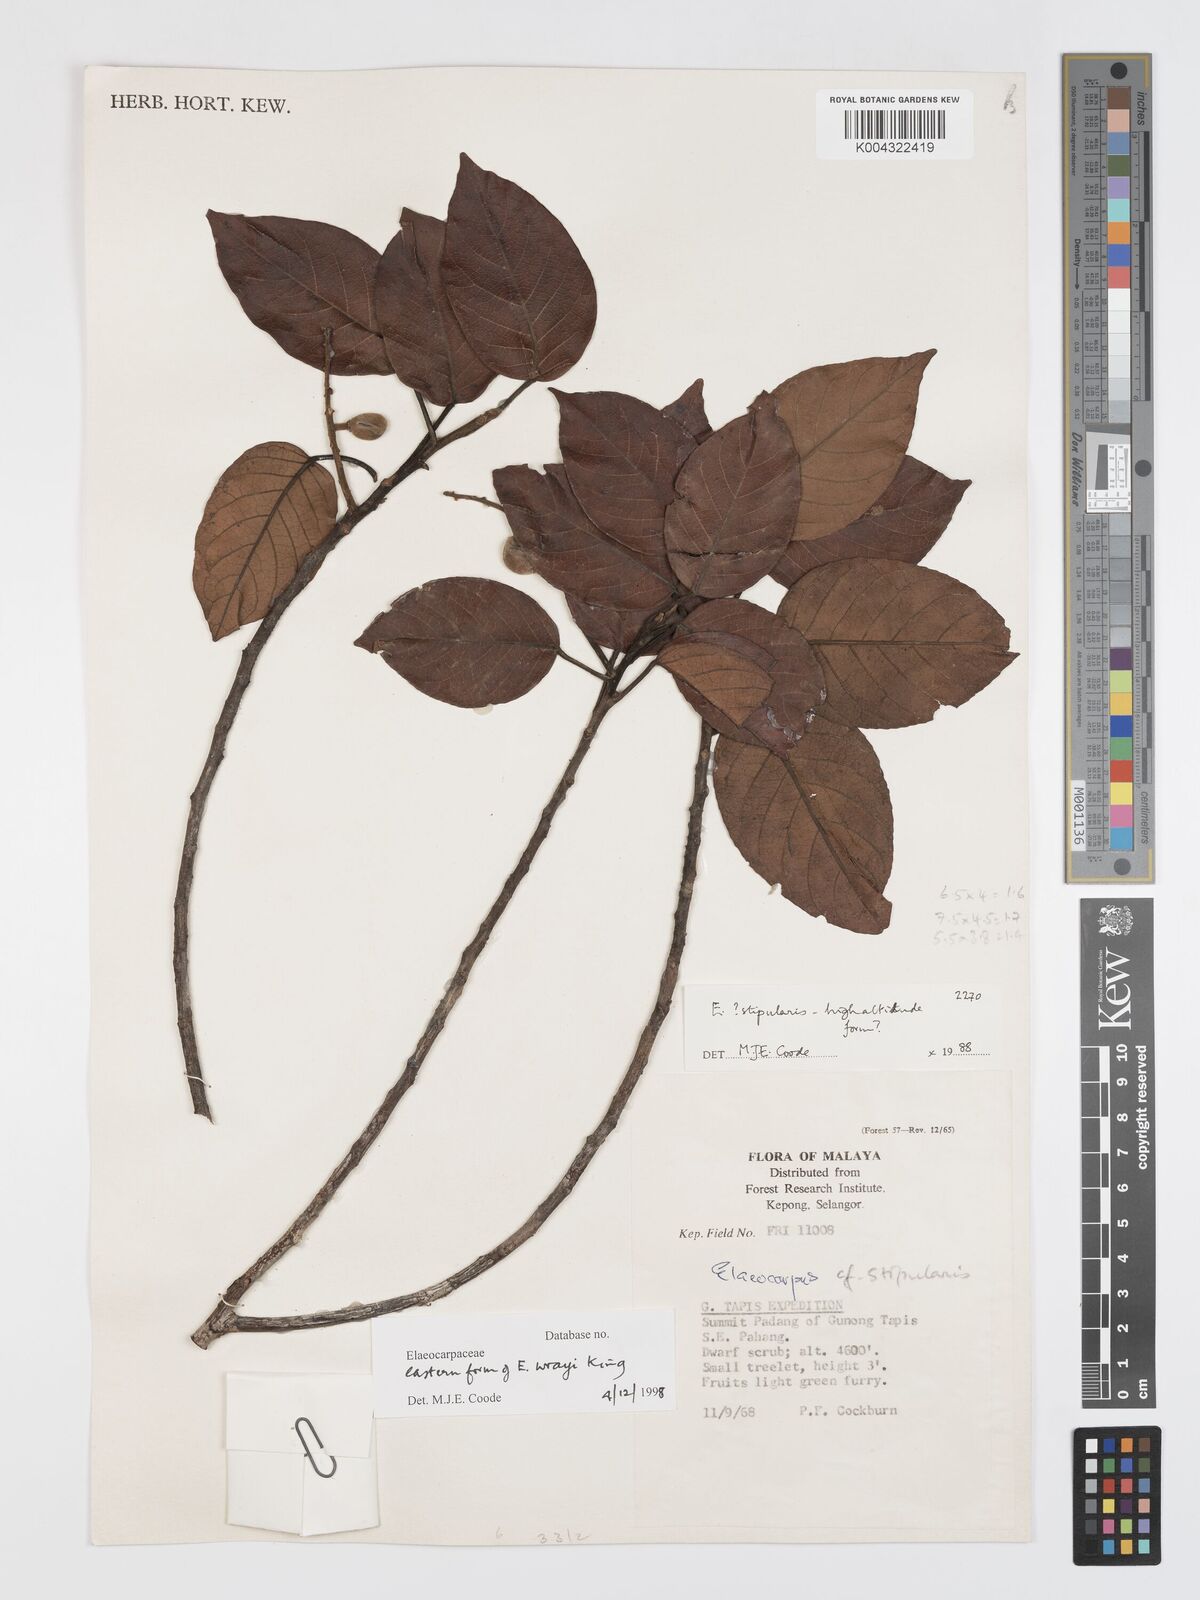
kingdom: Plantae
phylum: Tracheophyta
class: Magnoliopsida
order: Oxalidales
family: Elaeocarpaceae
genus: Elaeocarpus
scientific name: Elaeocarpus nitidus
